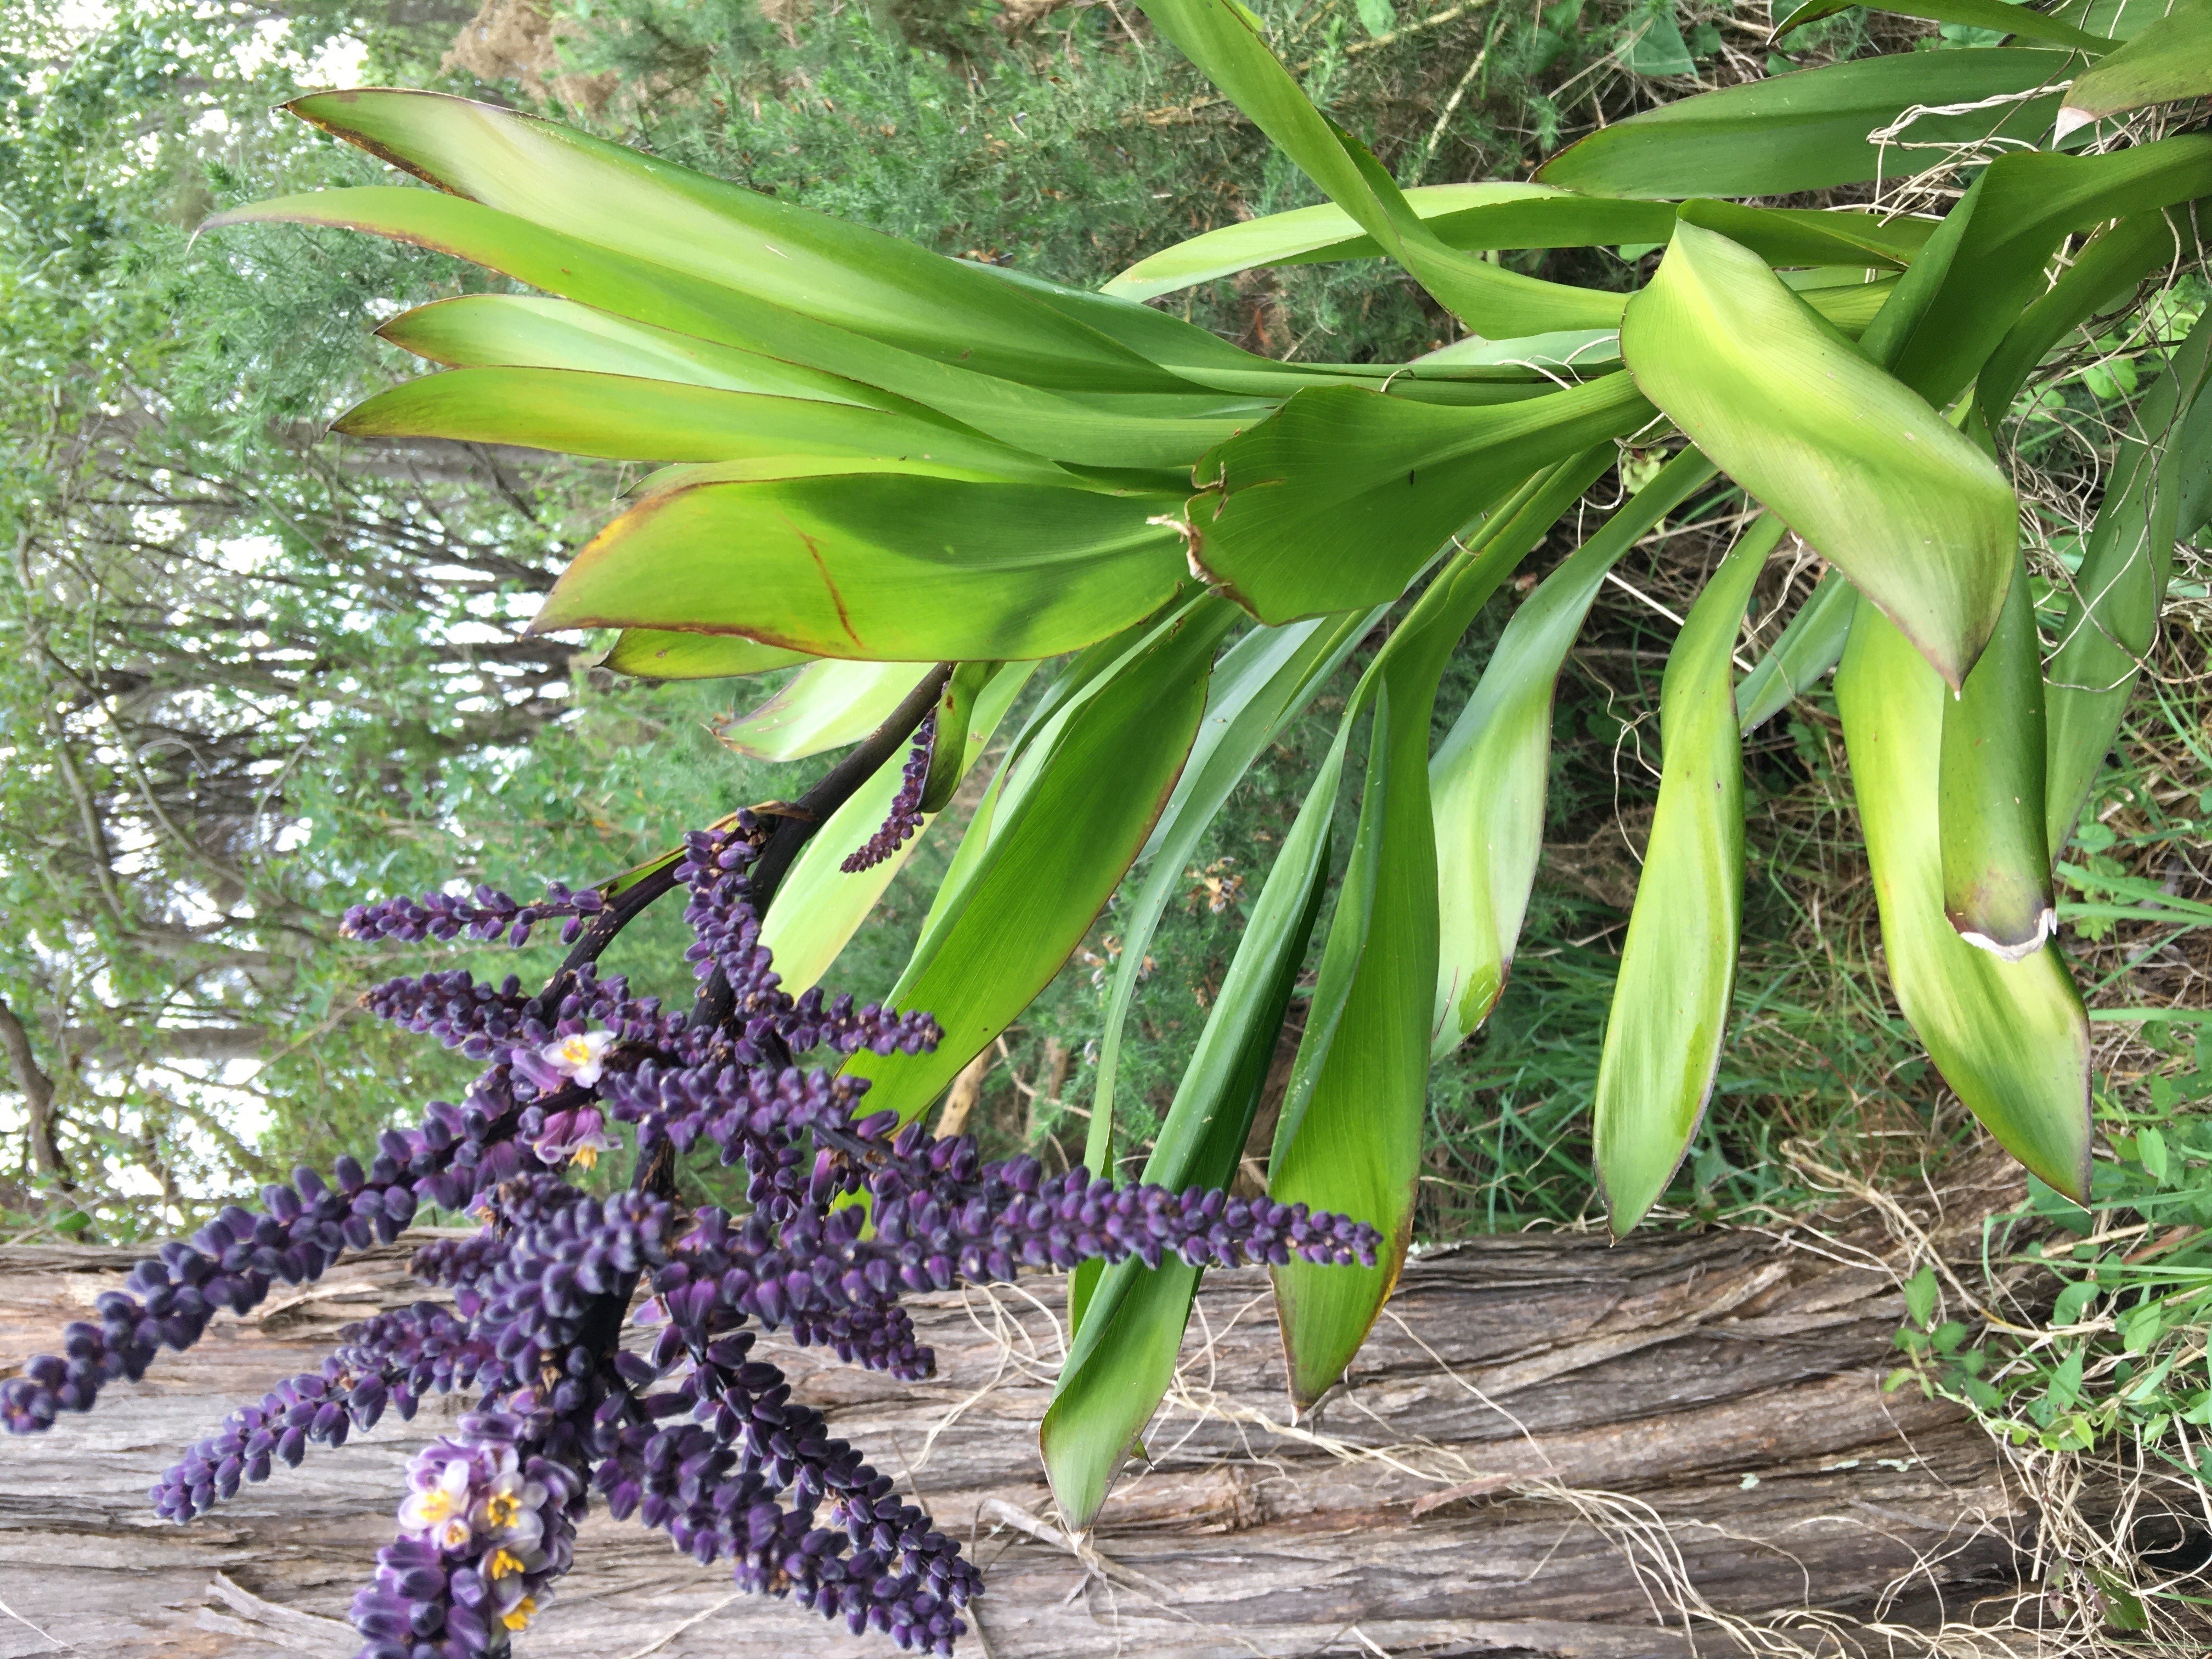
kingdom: Plantae
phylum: Tracheophyta
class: Liliopsida
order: Asparagales
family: Asparagaceae
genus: Cordyline
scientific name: Cordyline rubra
